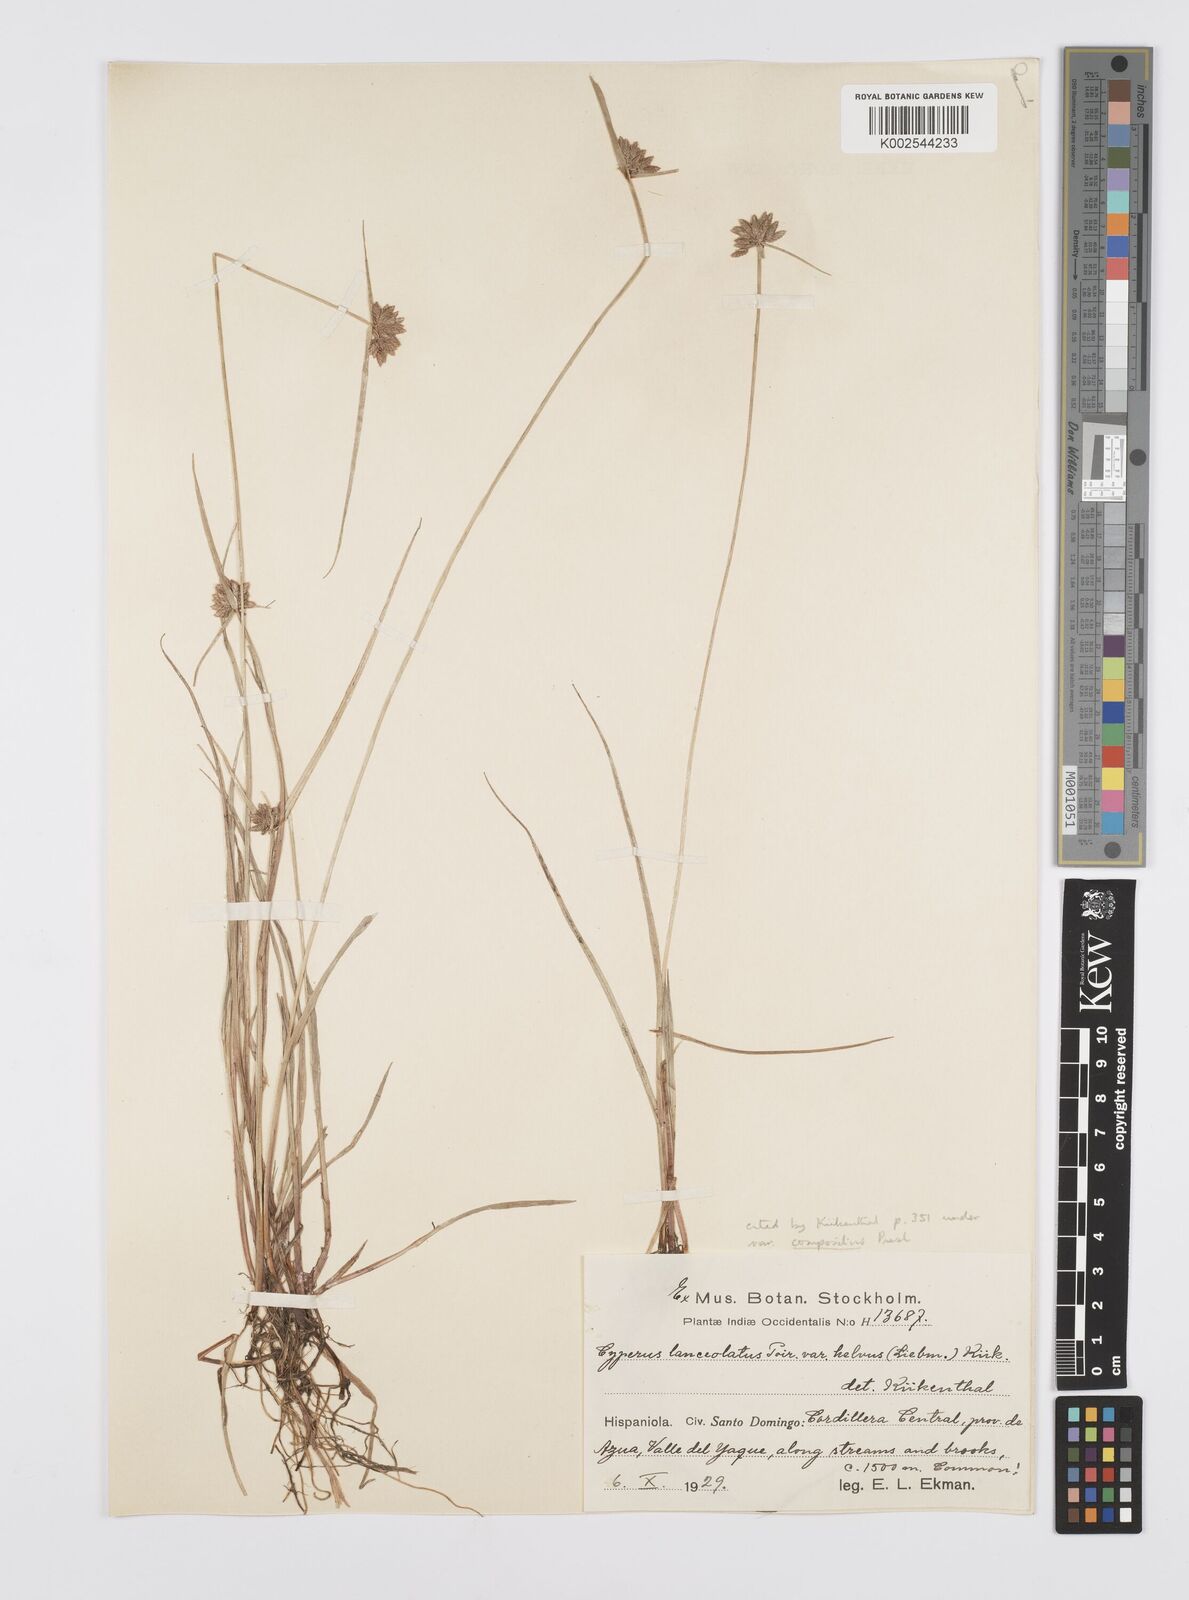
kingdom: Plantae
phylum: Tracheophyta
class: Liliopsida
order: Poales
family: Cyperaceae
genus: Cyperus
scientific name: Cyperus
